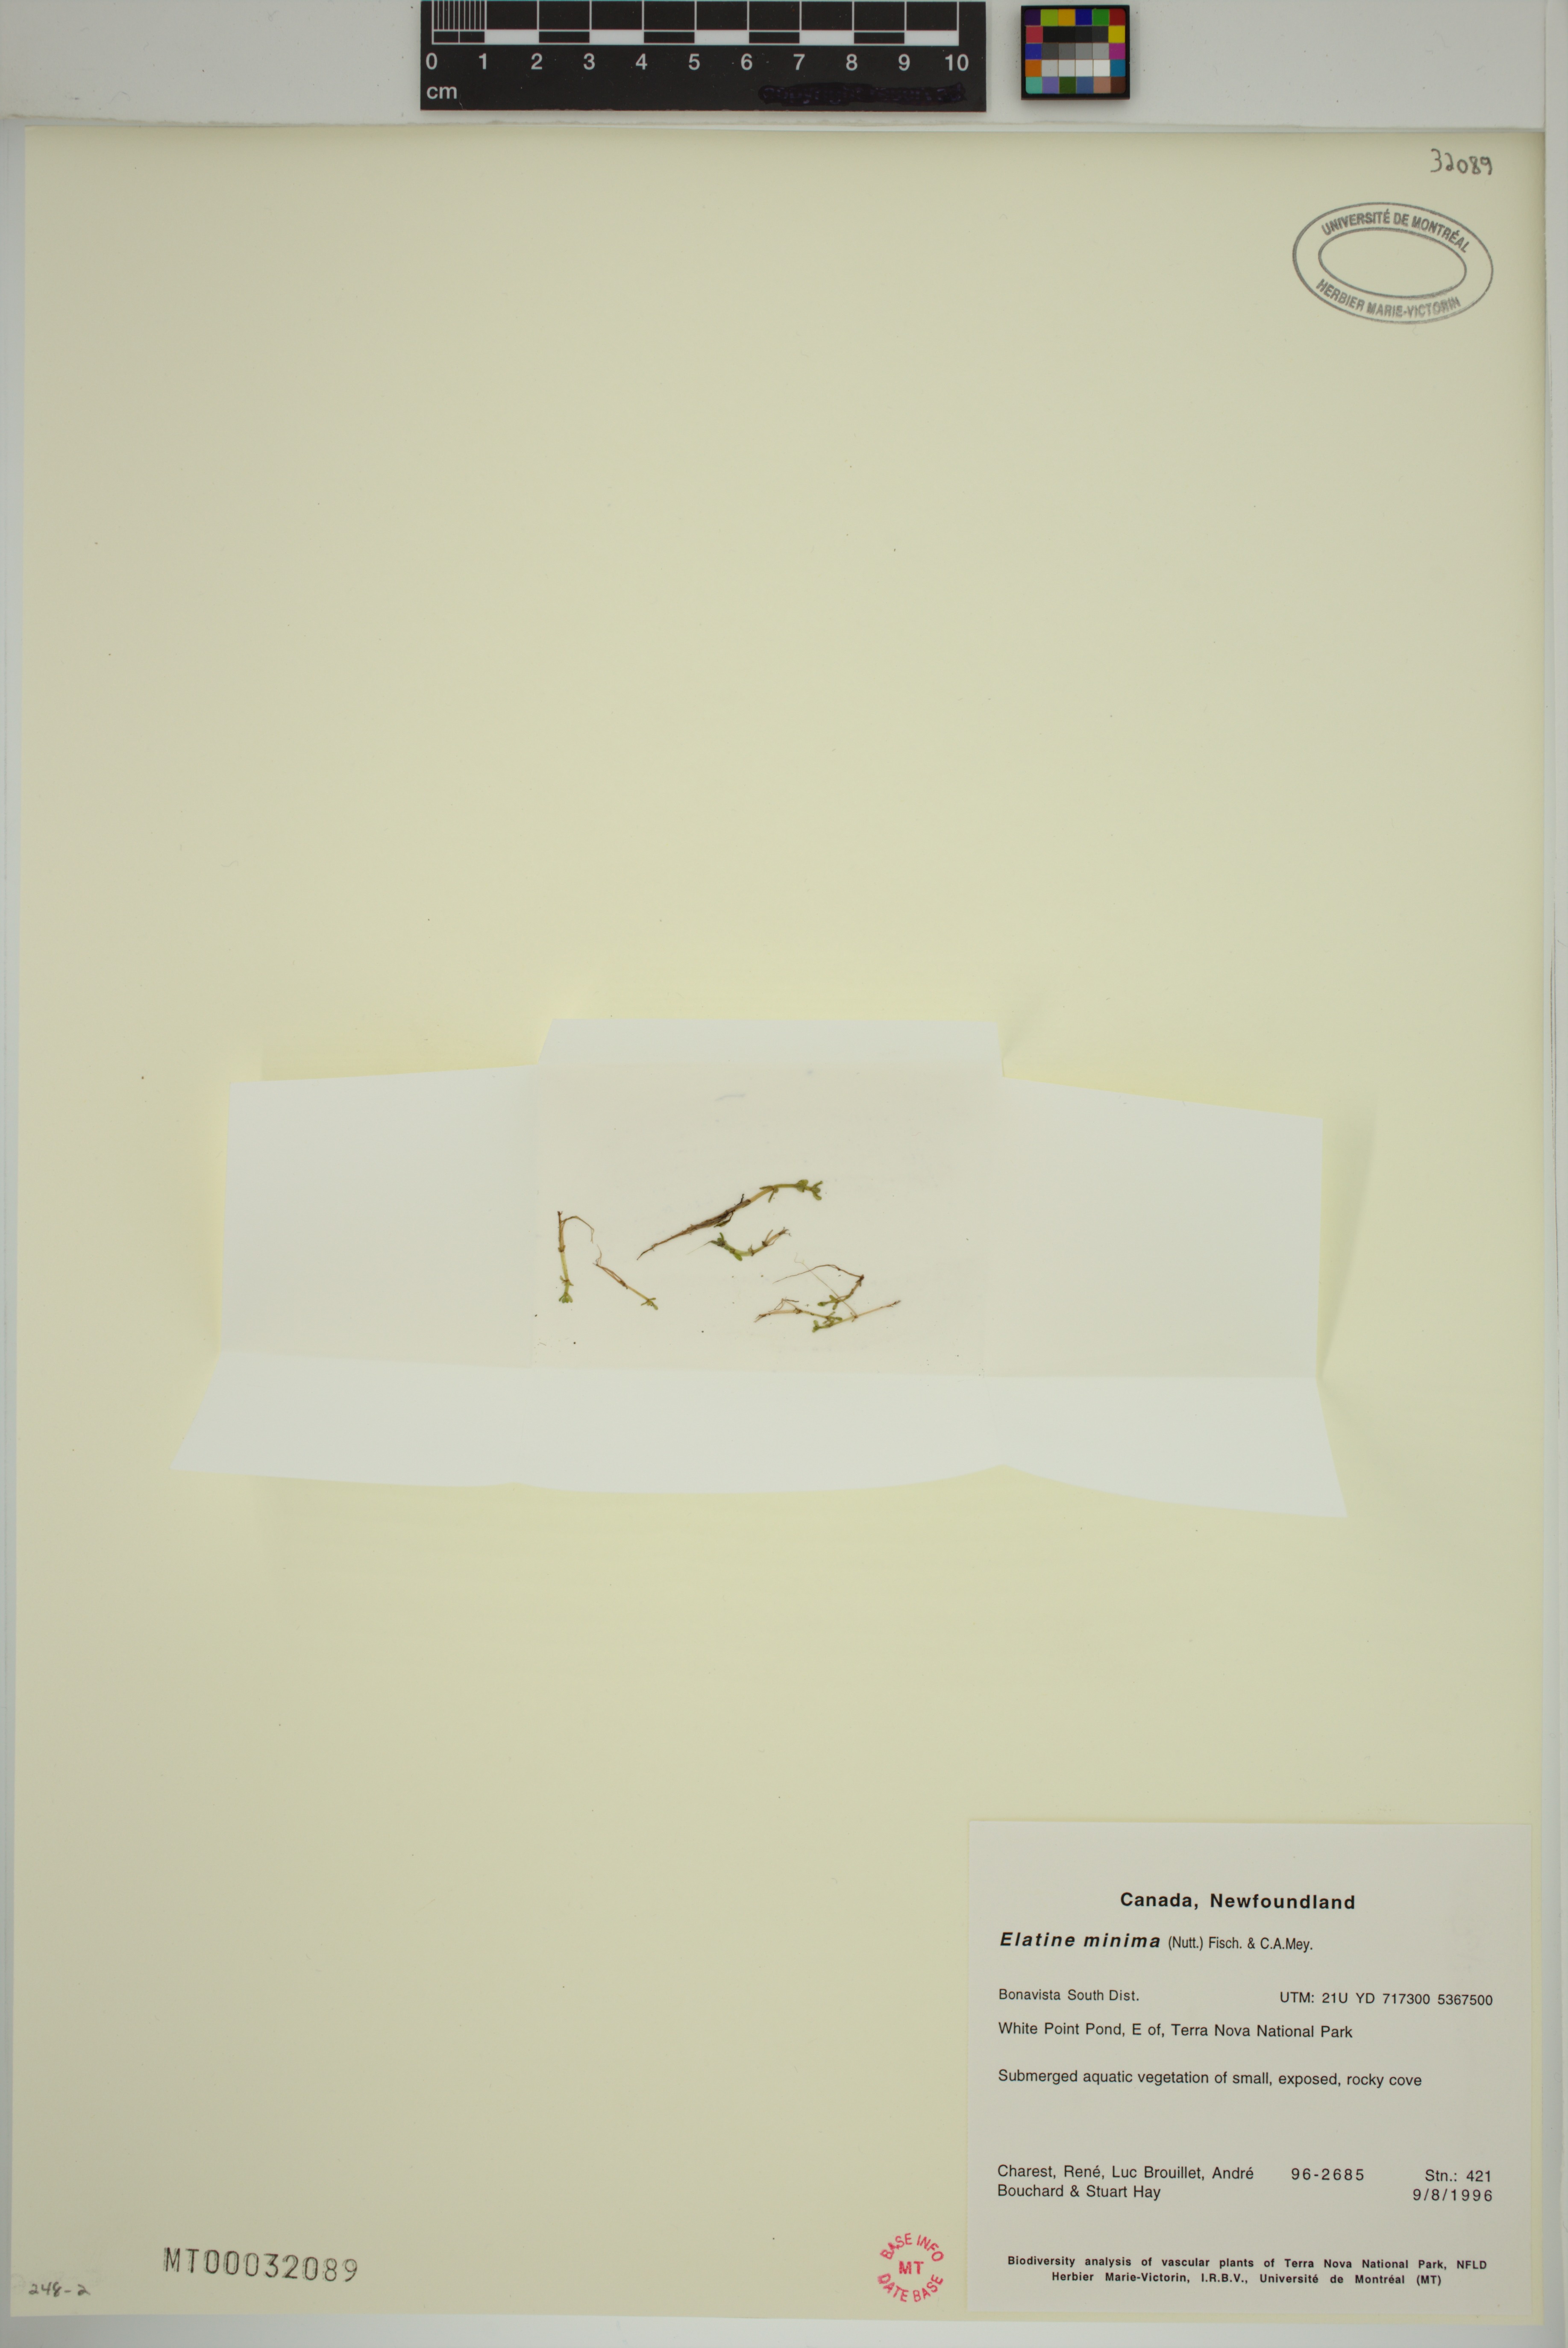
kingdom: Plantae
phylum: Tracheophyta
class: Magnoliopsida
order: Malpighiales
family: Elatinaceae
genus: Elatine
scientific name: Elatine minima
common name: Small waterwort
